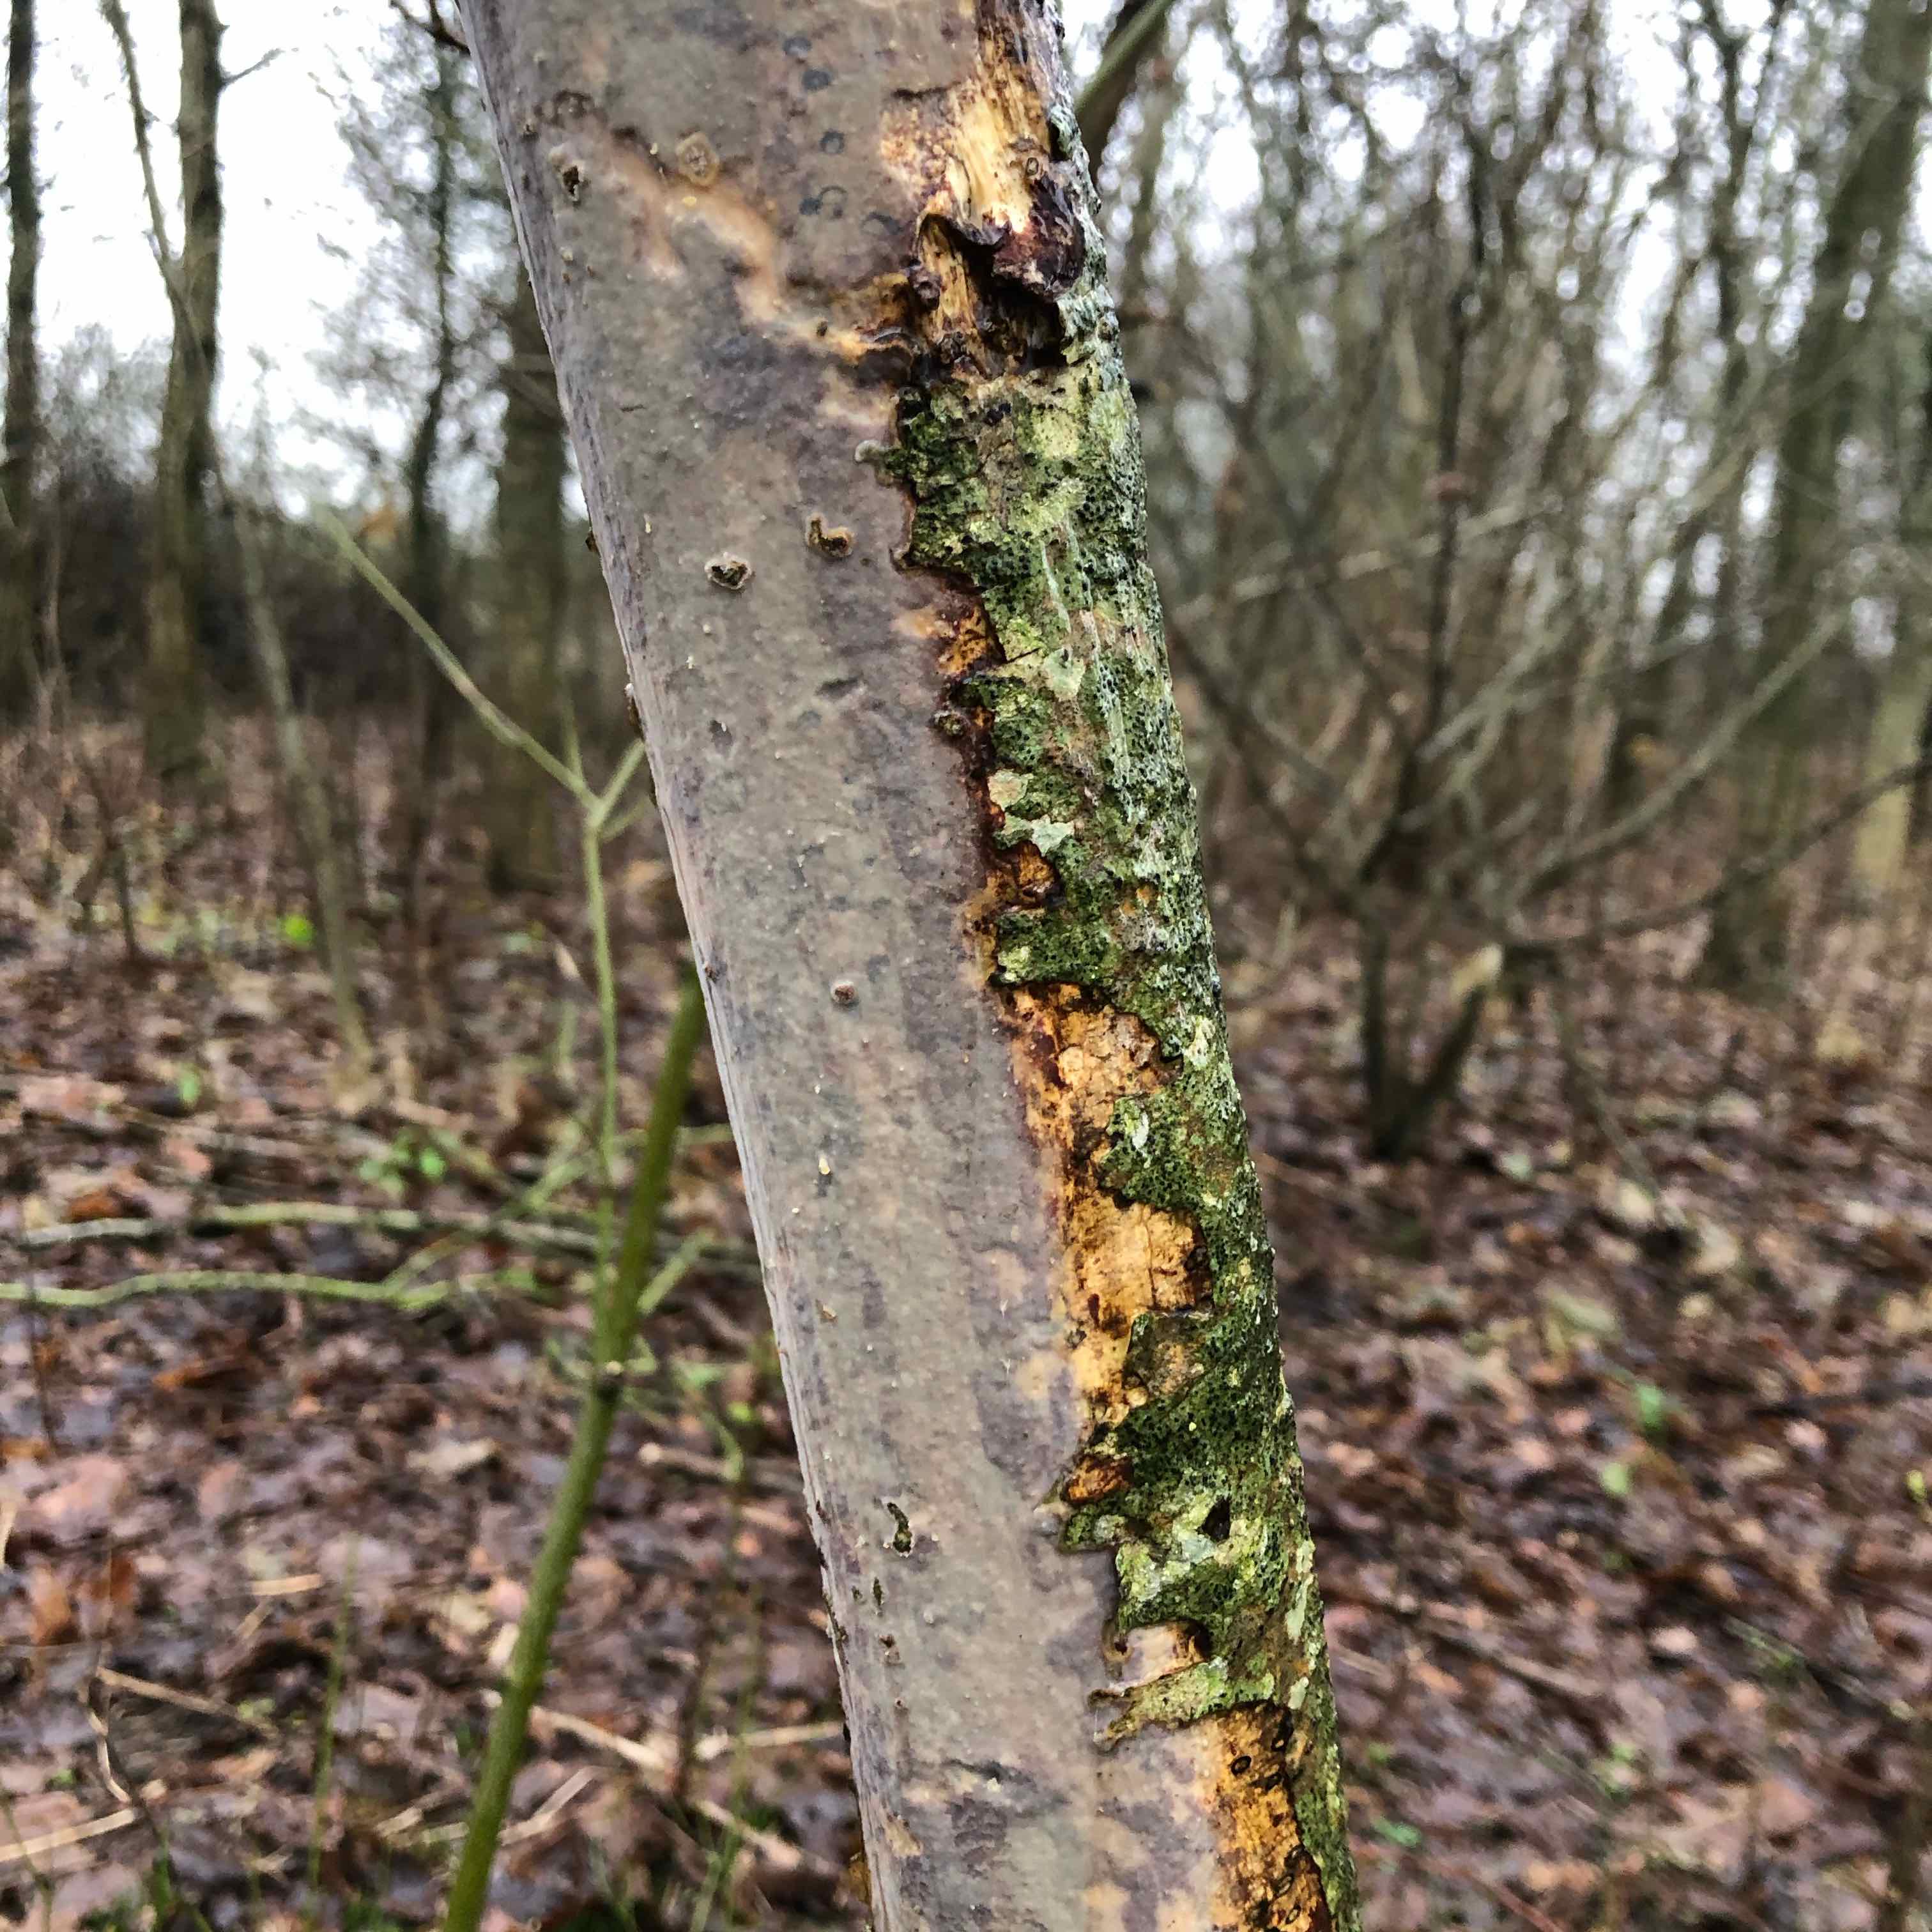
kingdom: Fungi
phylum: Basidiomycota
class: Agaricomycetes
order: Corticiales
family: Vuilleminiaceae
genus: Vuilleminia
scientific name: Vuilleminia comedens
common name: almindelig barksprænger
